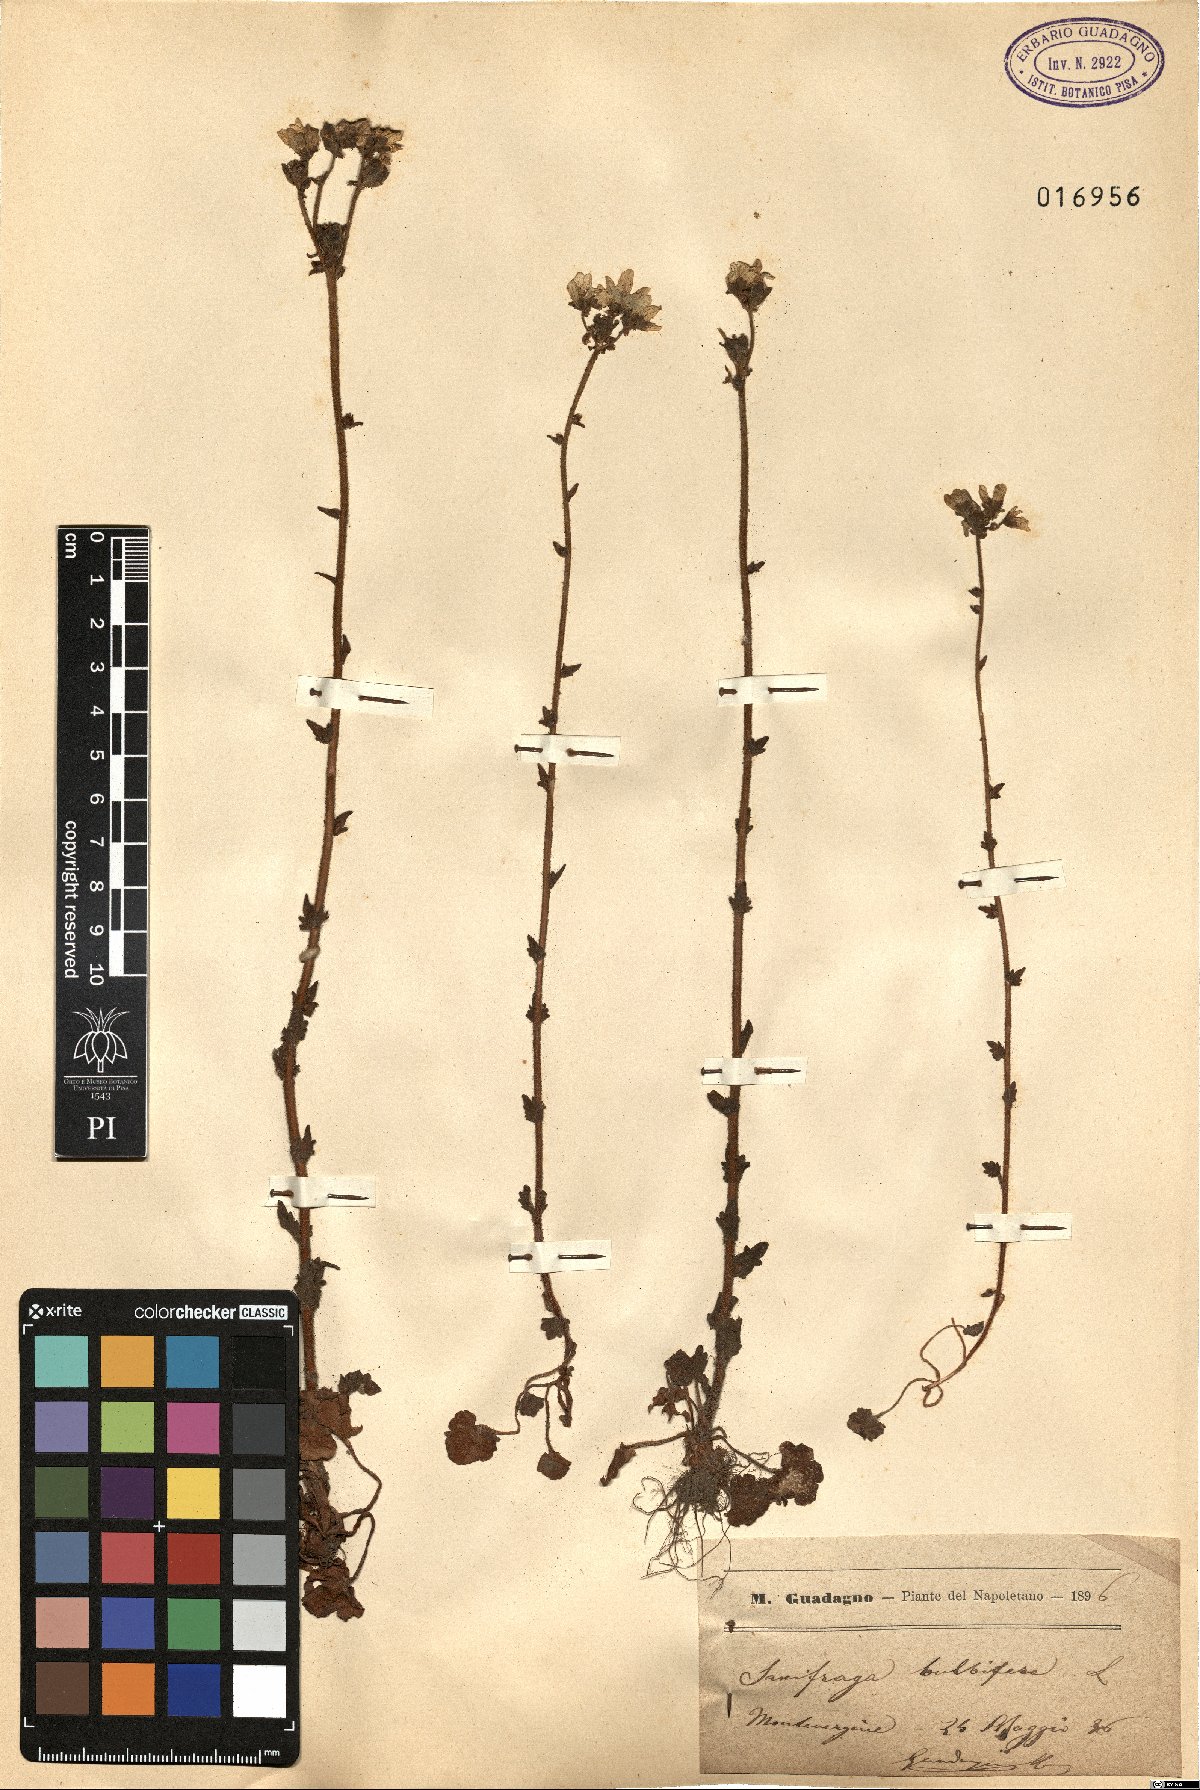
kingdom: Plantae
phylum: Tracheophyta
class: Magnoliopsida
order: Saxifragales
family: Saxifragaceae
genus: Saxifraga
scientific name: Saxifraga bulbifera
